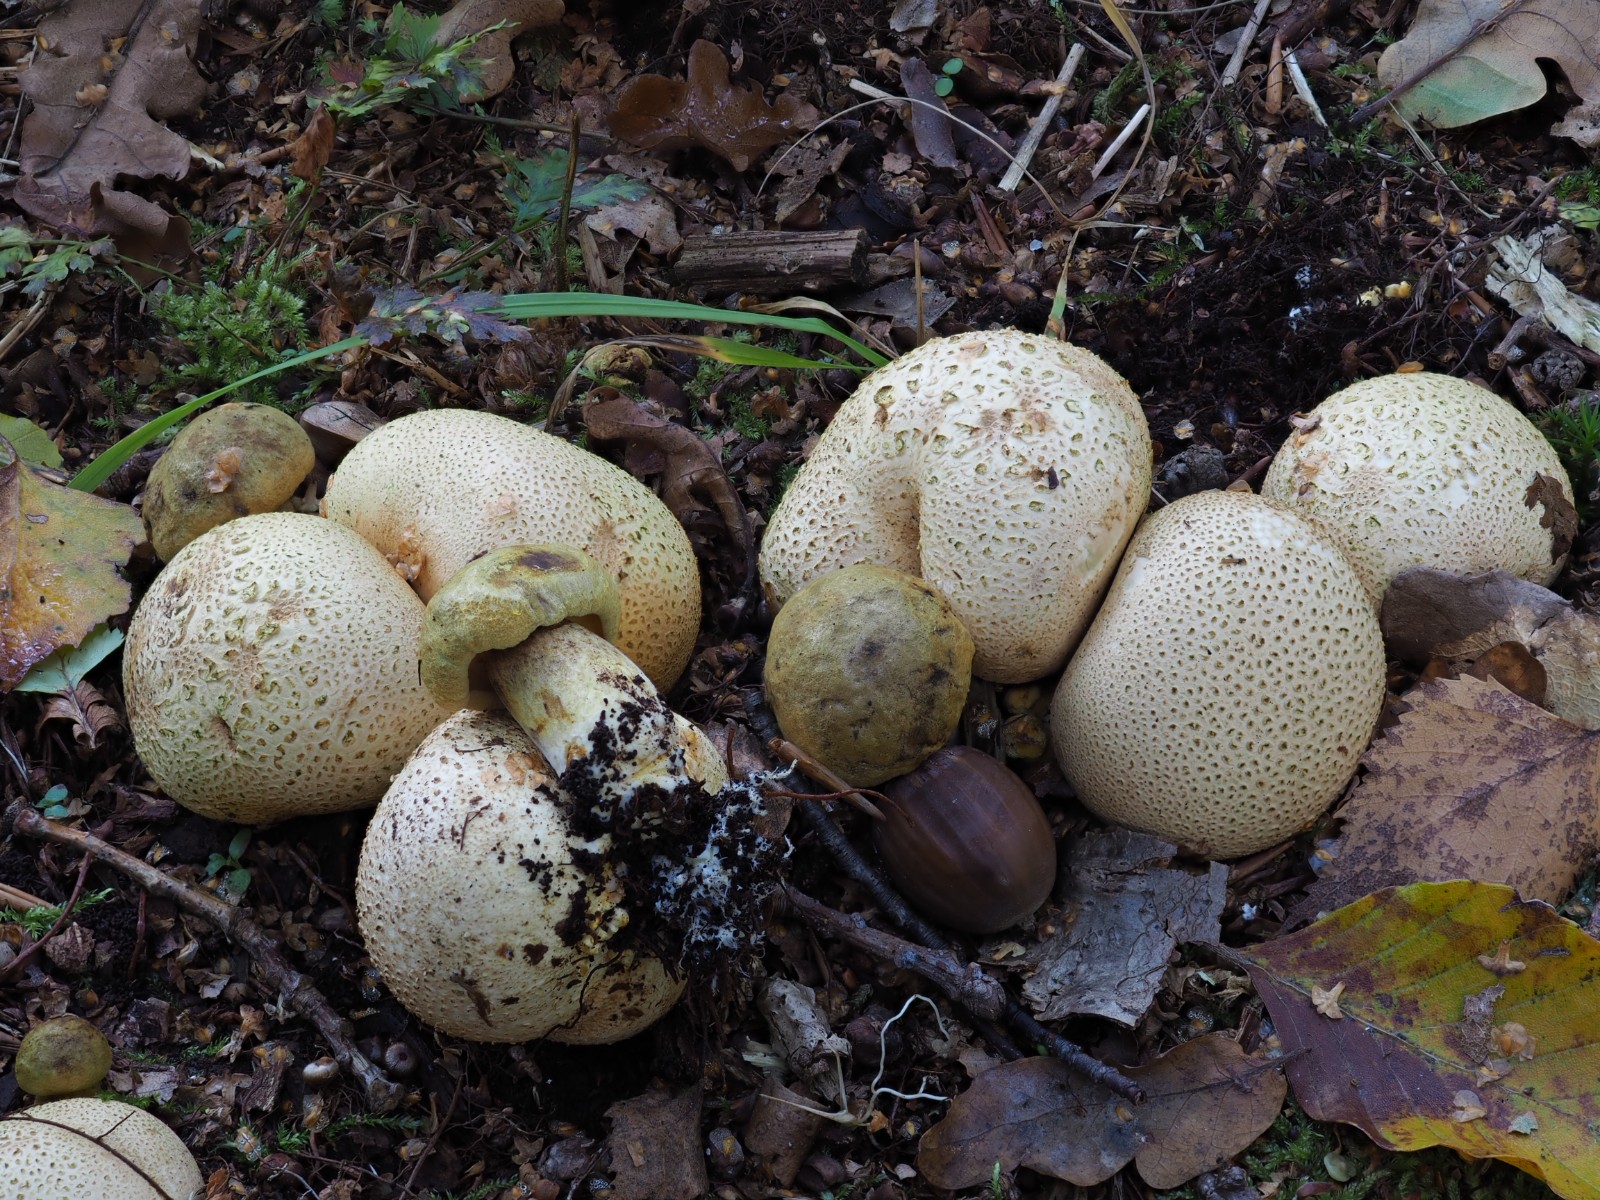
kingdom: Fungi
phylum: Basidiomycota
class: Agaricomycetes
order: Boletales
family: Boletaceae
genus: Pseudoboletus
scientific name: Pseudoboletus parasiticus
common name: snyltende rørhat
